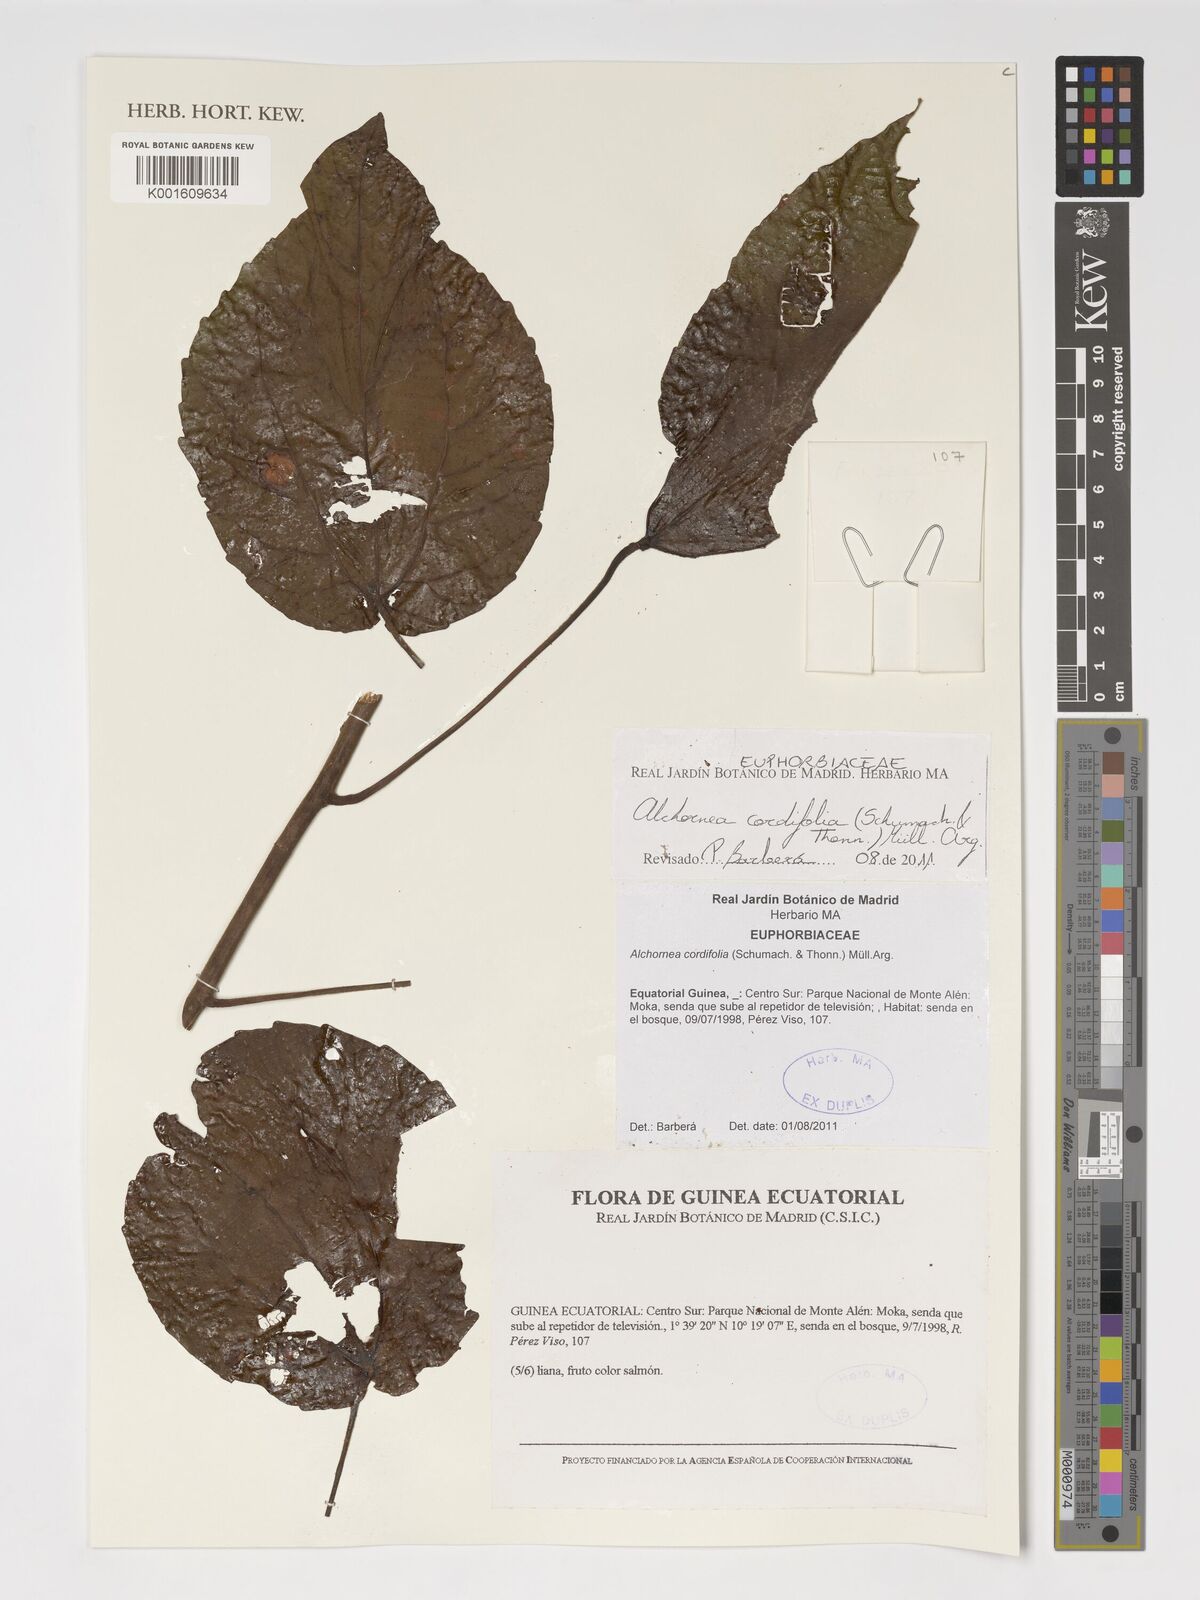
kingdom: Plantae
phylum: Tracheophyta
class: Magnoliopsida
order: Malpighiales
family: Euphorbiaceae
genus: Alchornea
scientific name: Alchornea cordifolia
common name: Christmasbush
